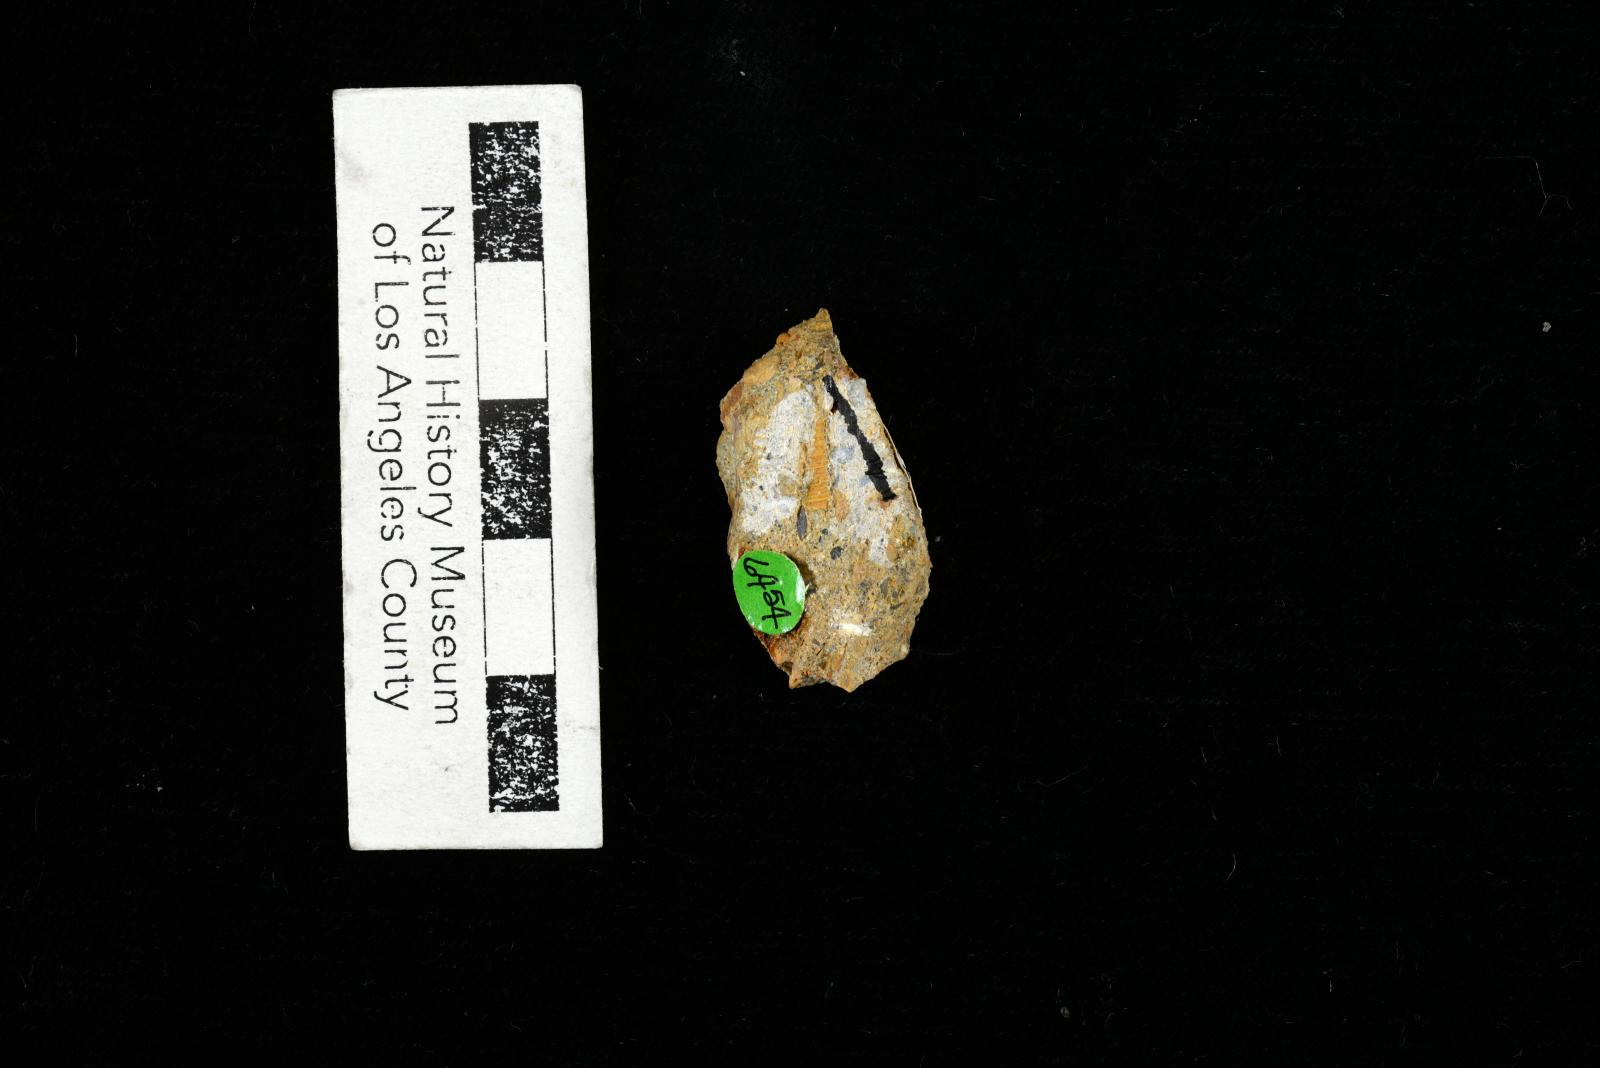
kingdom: Animalia
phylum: Mollusca
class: Gastropoda
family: Turritellidae
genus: Turritella
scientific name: Turritella
